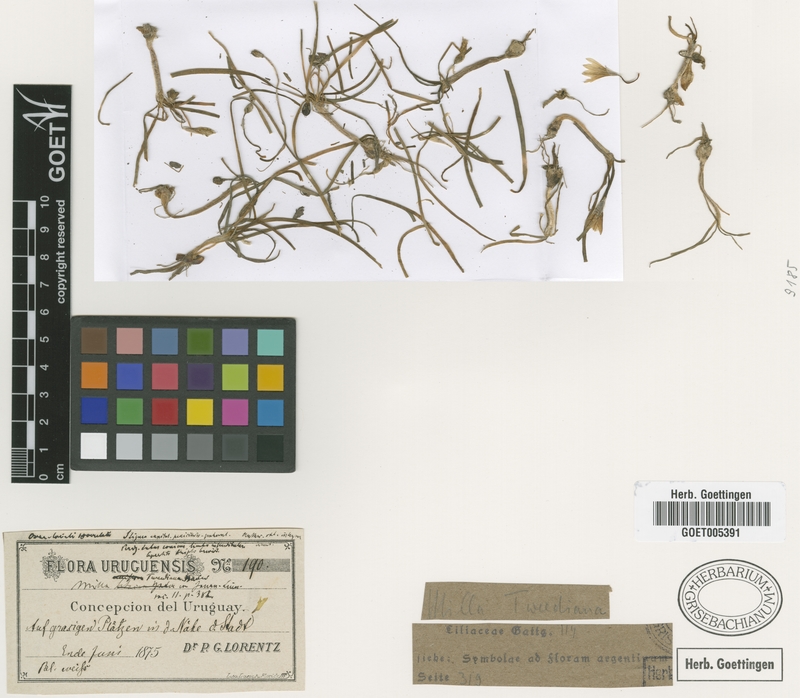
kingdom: Plantae
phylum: Tracheophyta
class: Liliopsida
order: Asparagales
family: Amaryllidaceae
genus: Ipheion
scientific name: Ipheion tweedieanum
